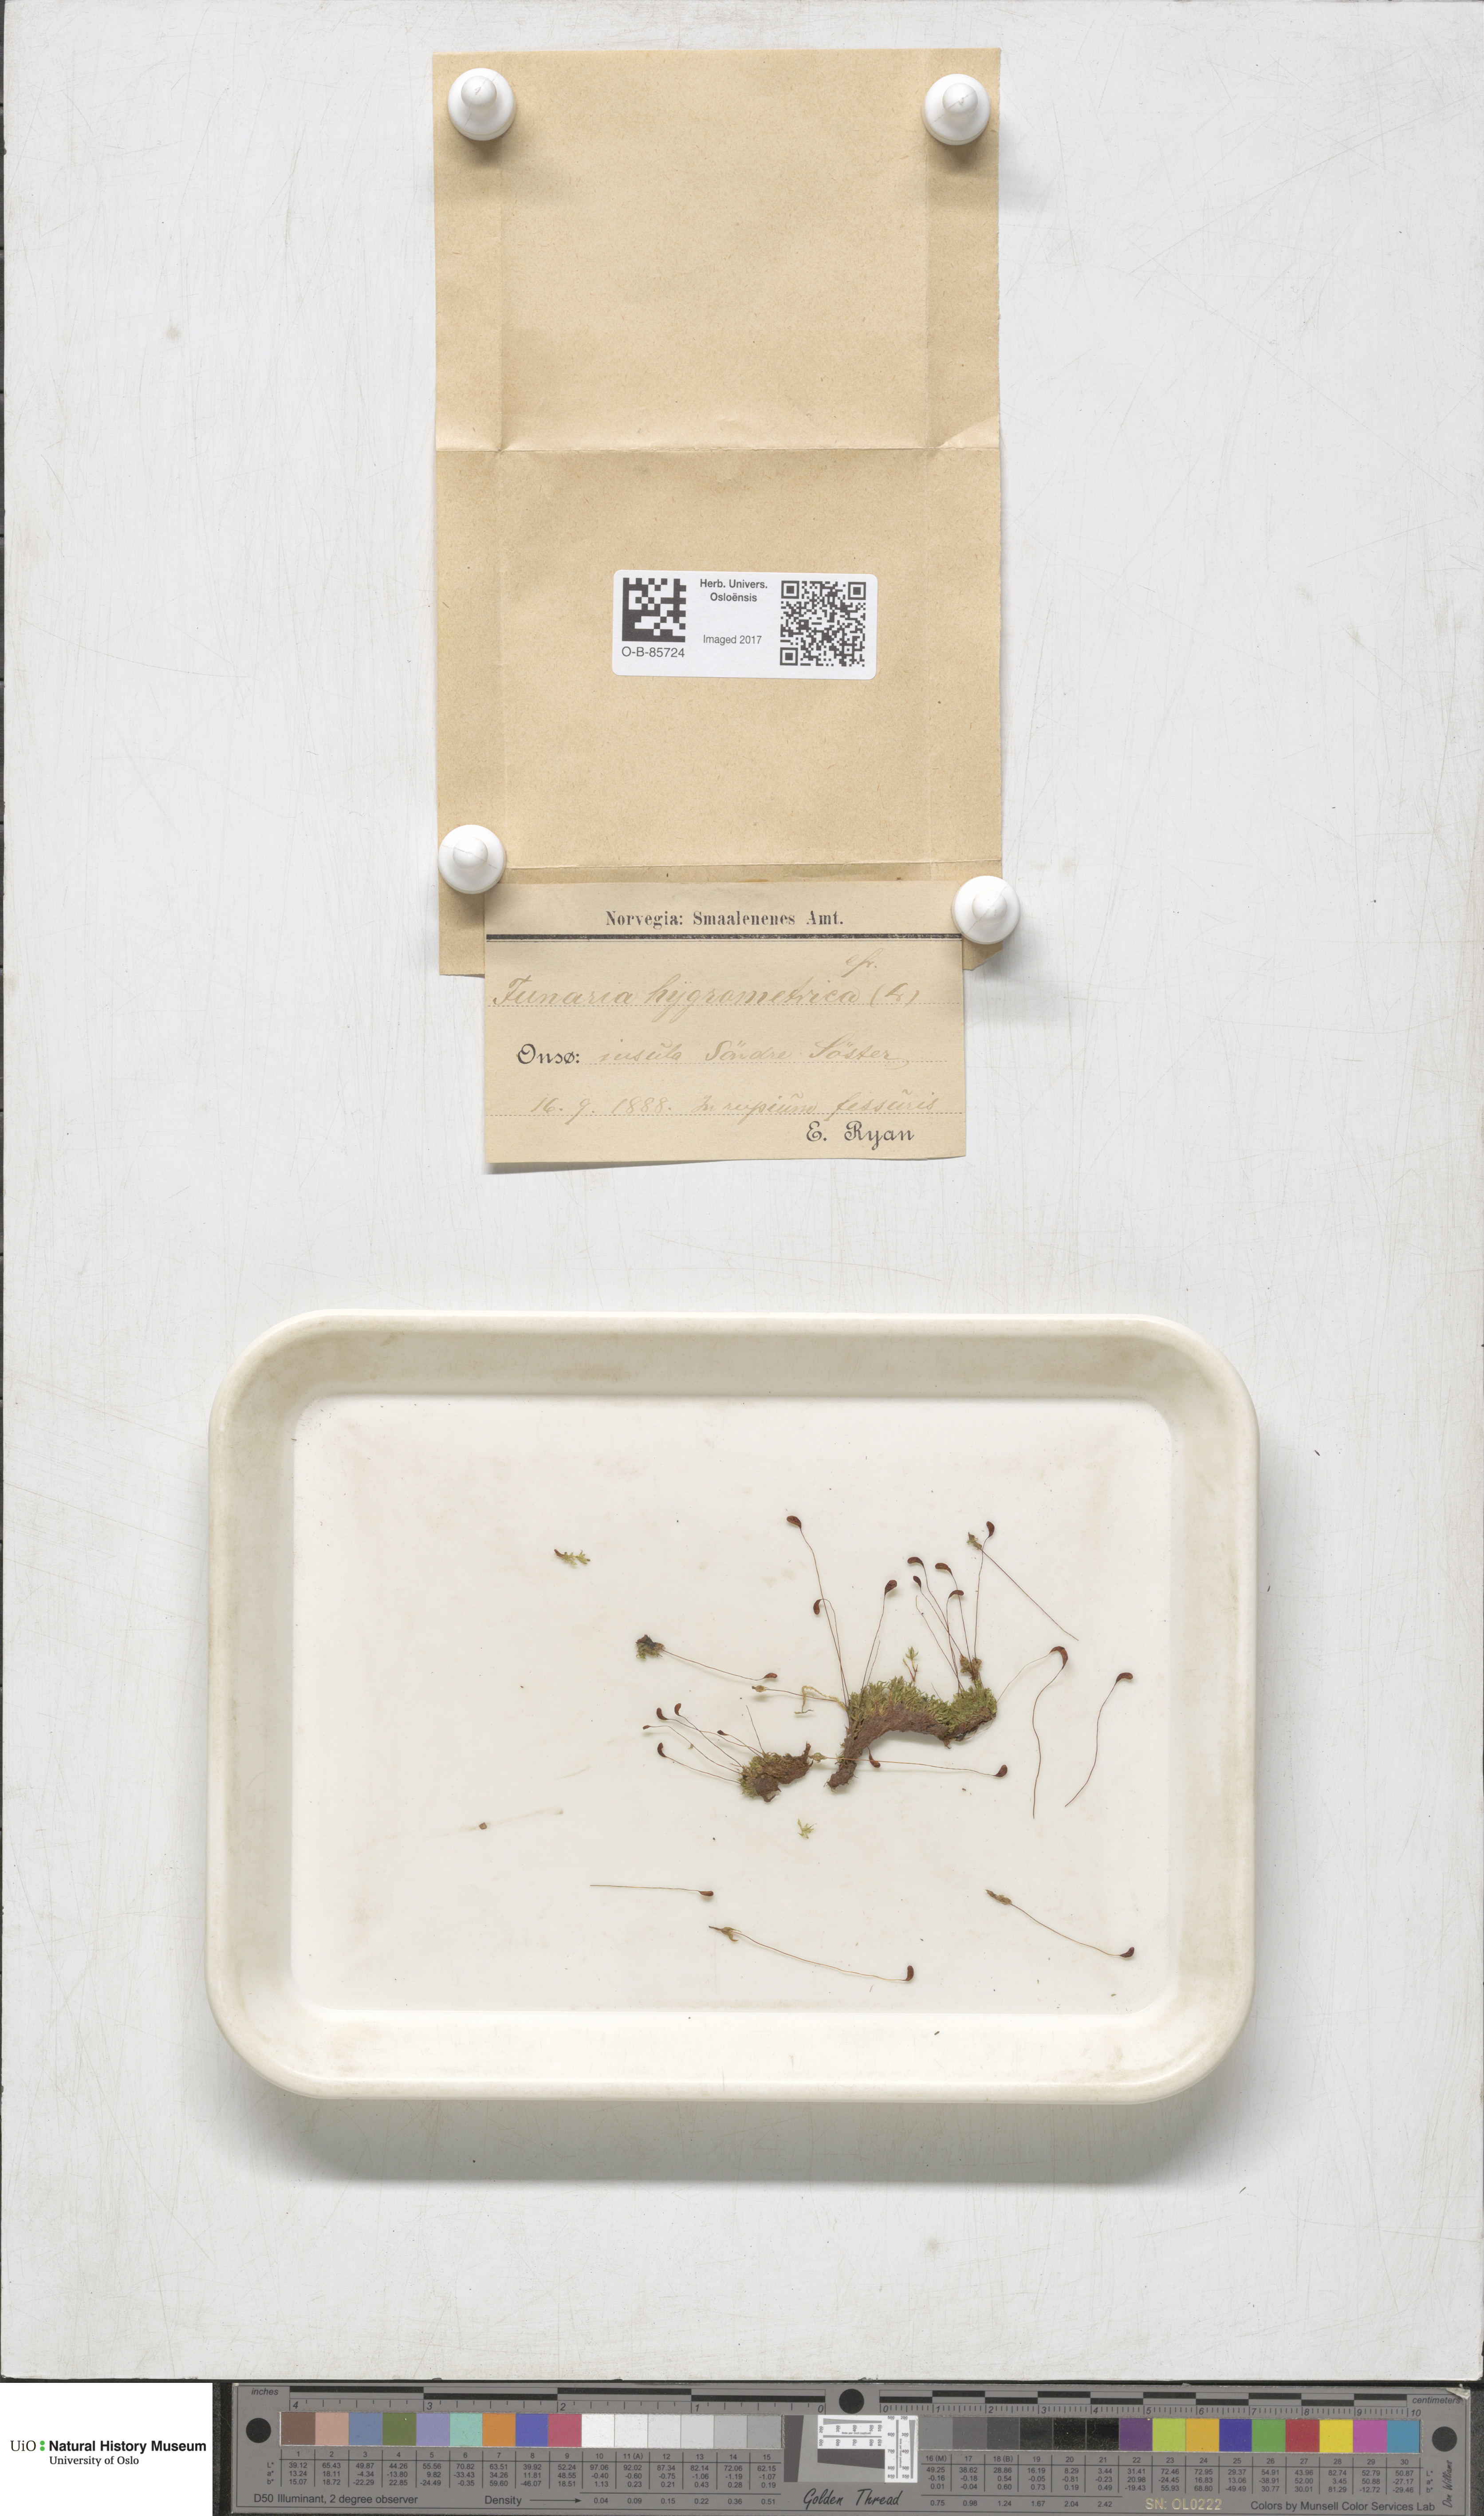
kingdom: Plantae
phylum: Bryophyta
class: Bryopsida
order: Funariales
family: Funariaceae
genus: Funaria
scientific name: Funaria hygrometrica
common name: Common cord moss
